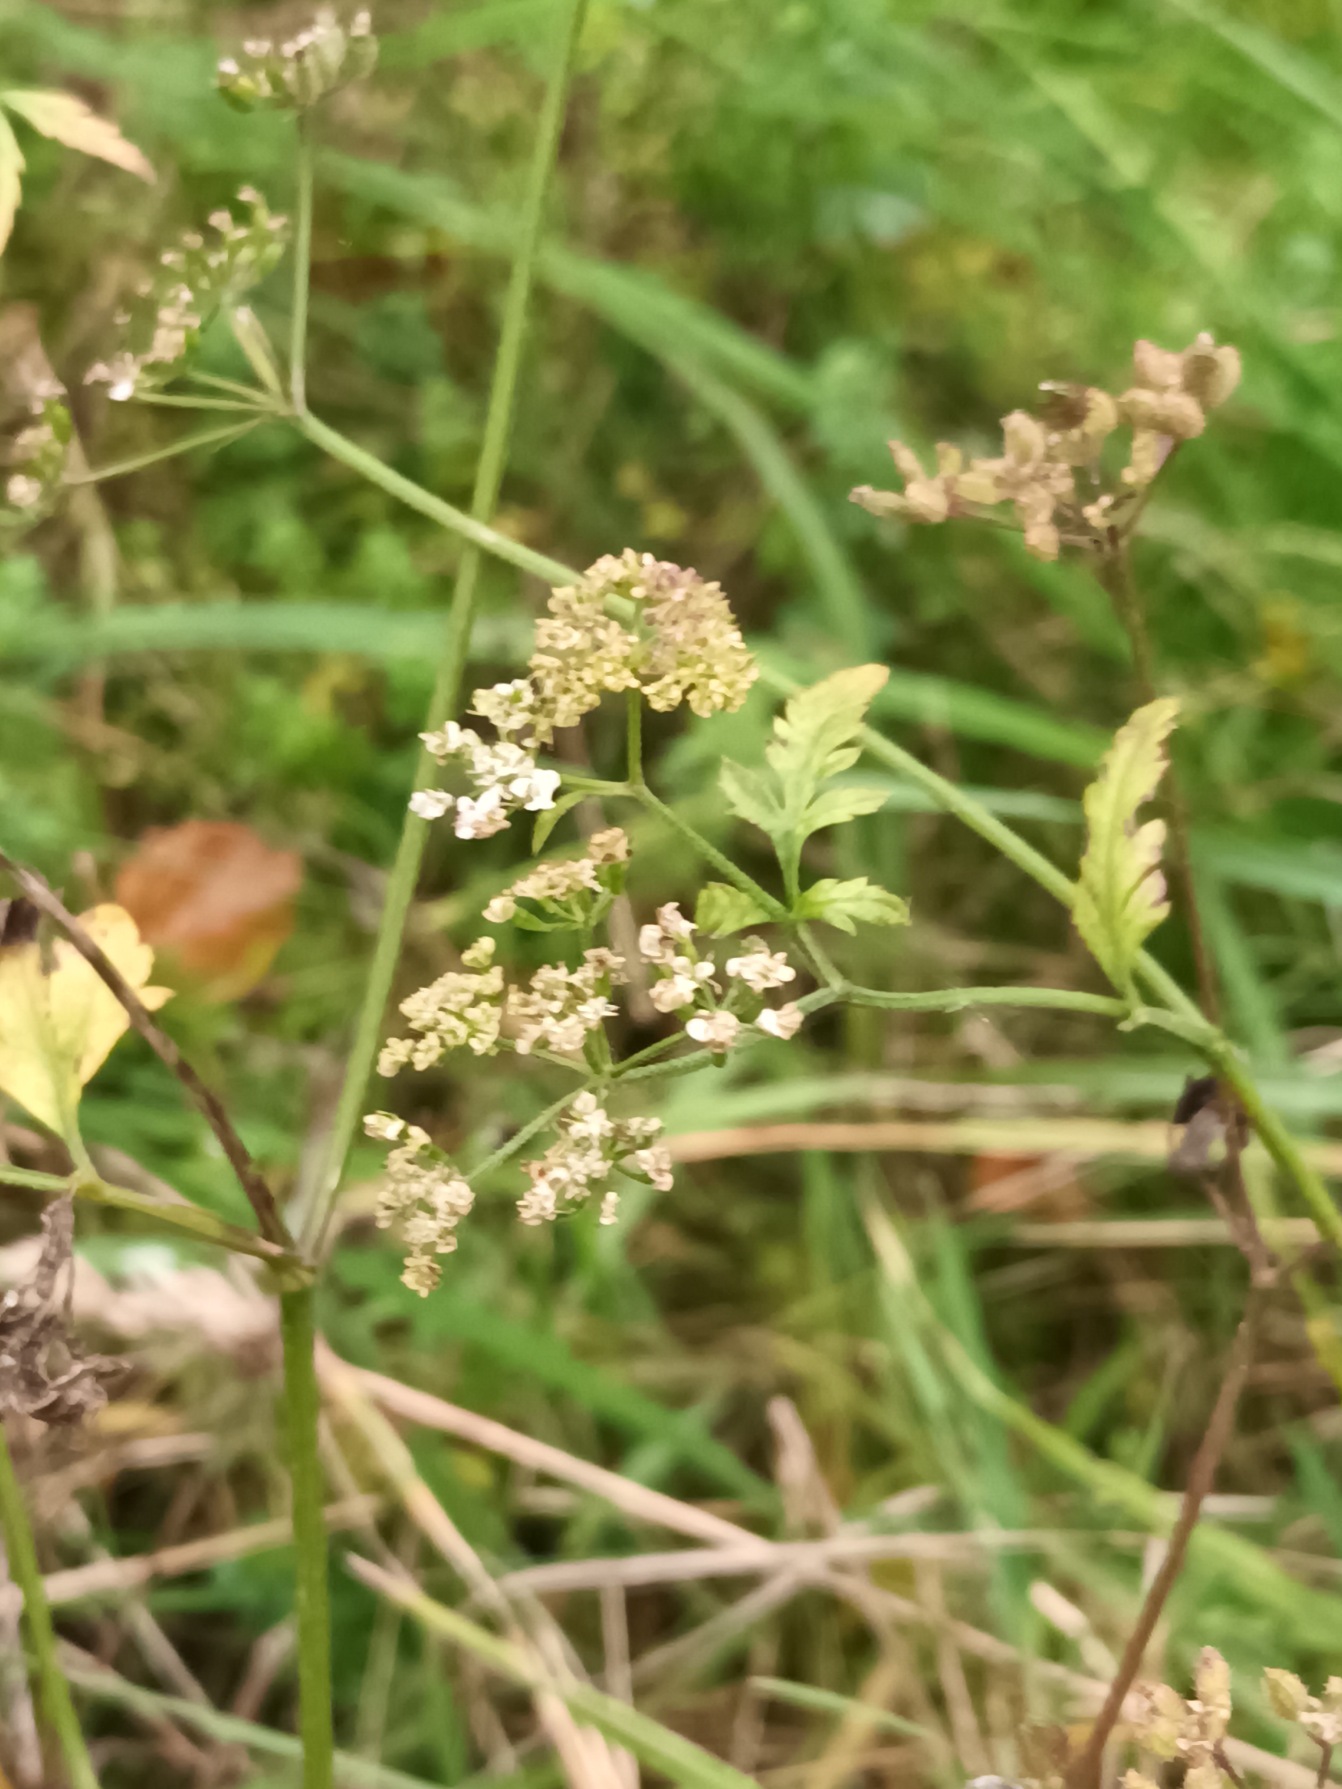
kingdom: Plantae
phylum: Tracheophyta
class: Magnoliopsida
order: Apiales
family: Apiaceae
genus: Torilis
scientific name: Torilis japonica
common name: Hvas randfrø
